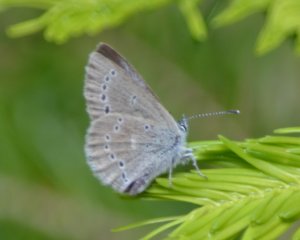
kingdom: Animalia
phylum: Arthropoda
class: Insecta
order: Lepidoptera
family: Lycaenidae
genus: Glaucopsyche
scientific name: Glaucopsyche lygdamus
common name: Silvery Blue
